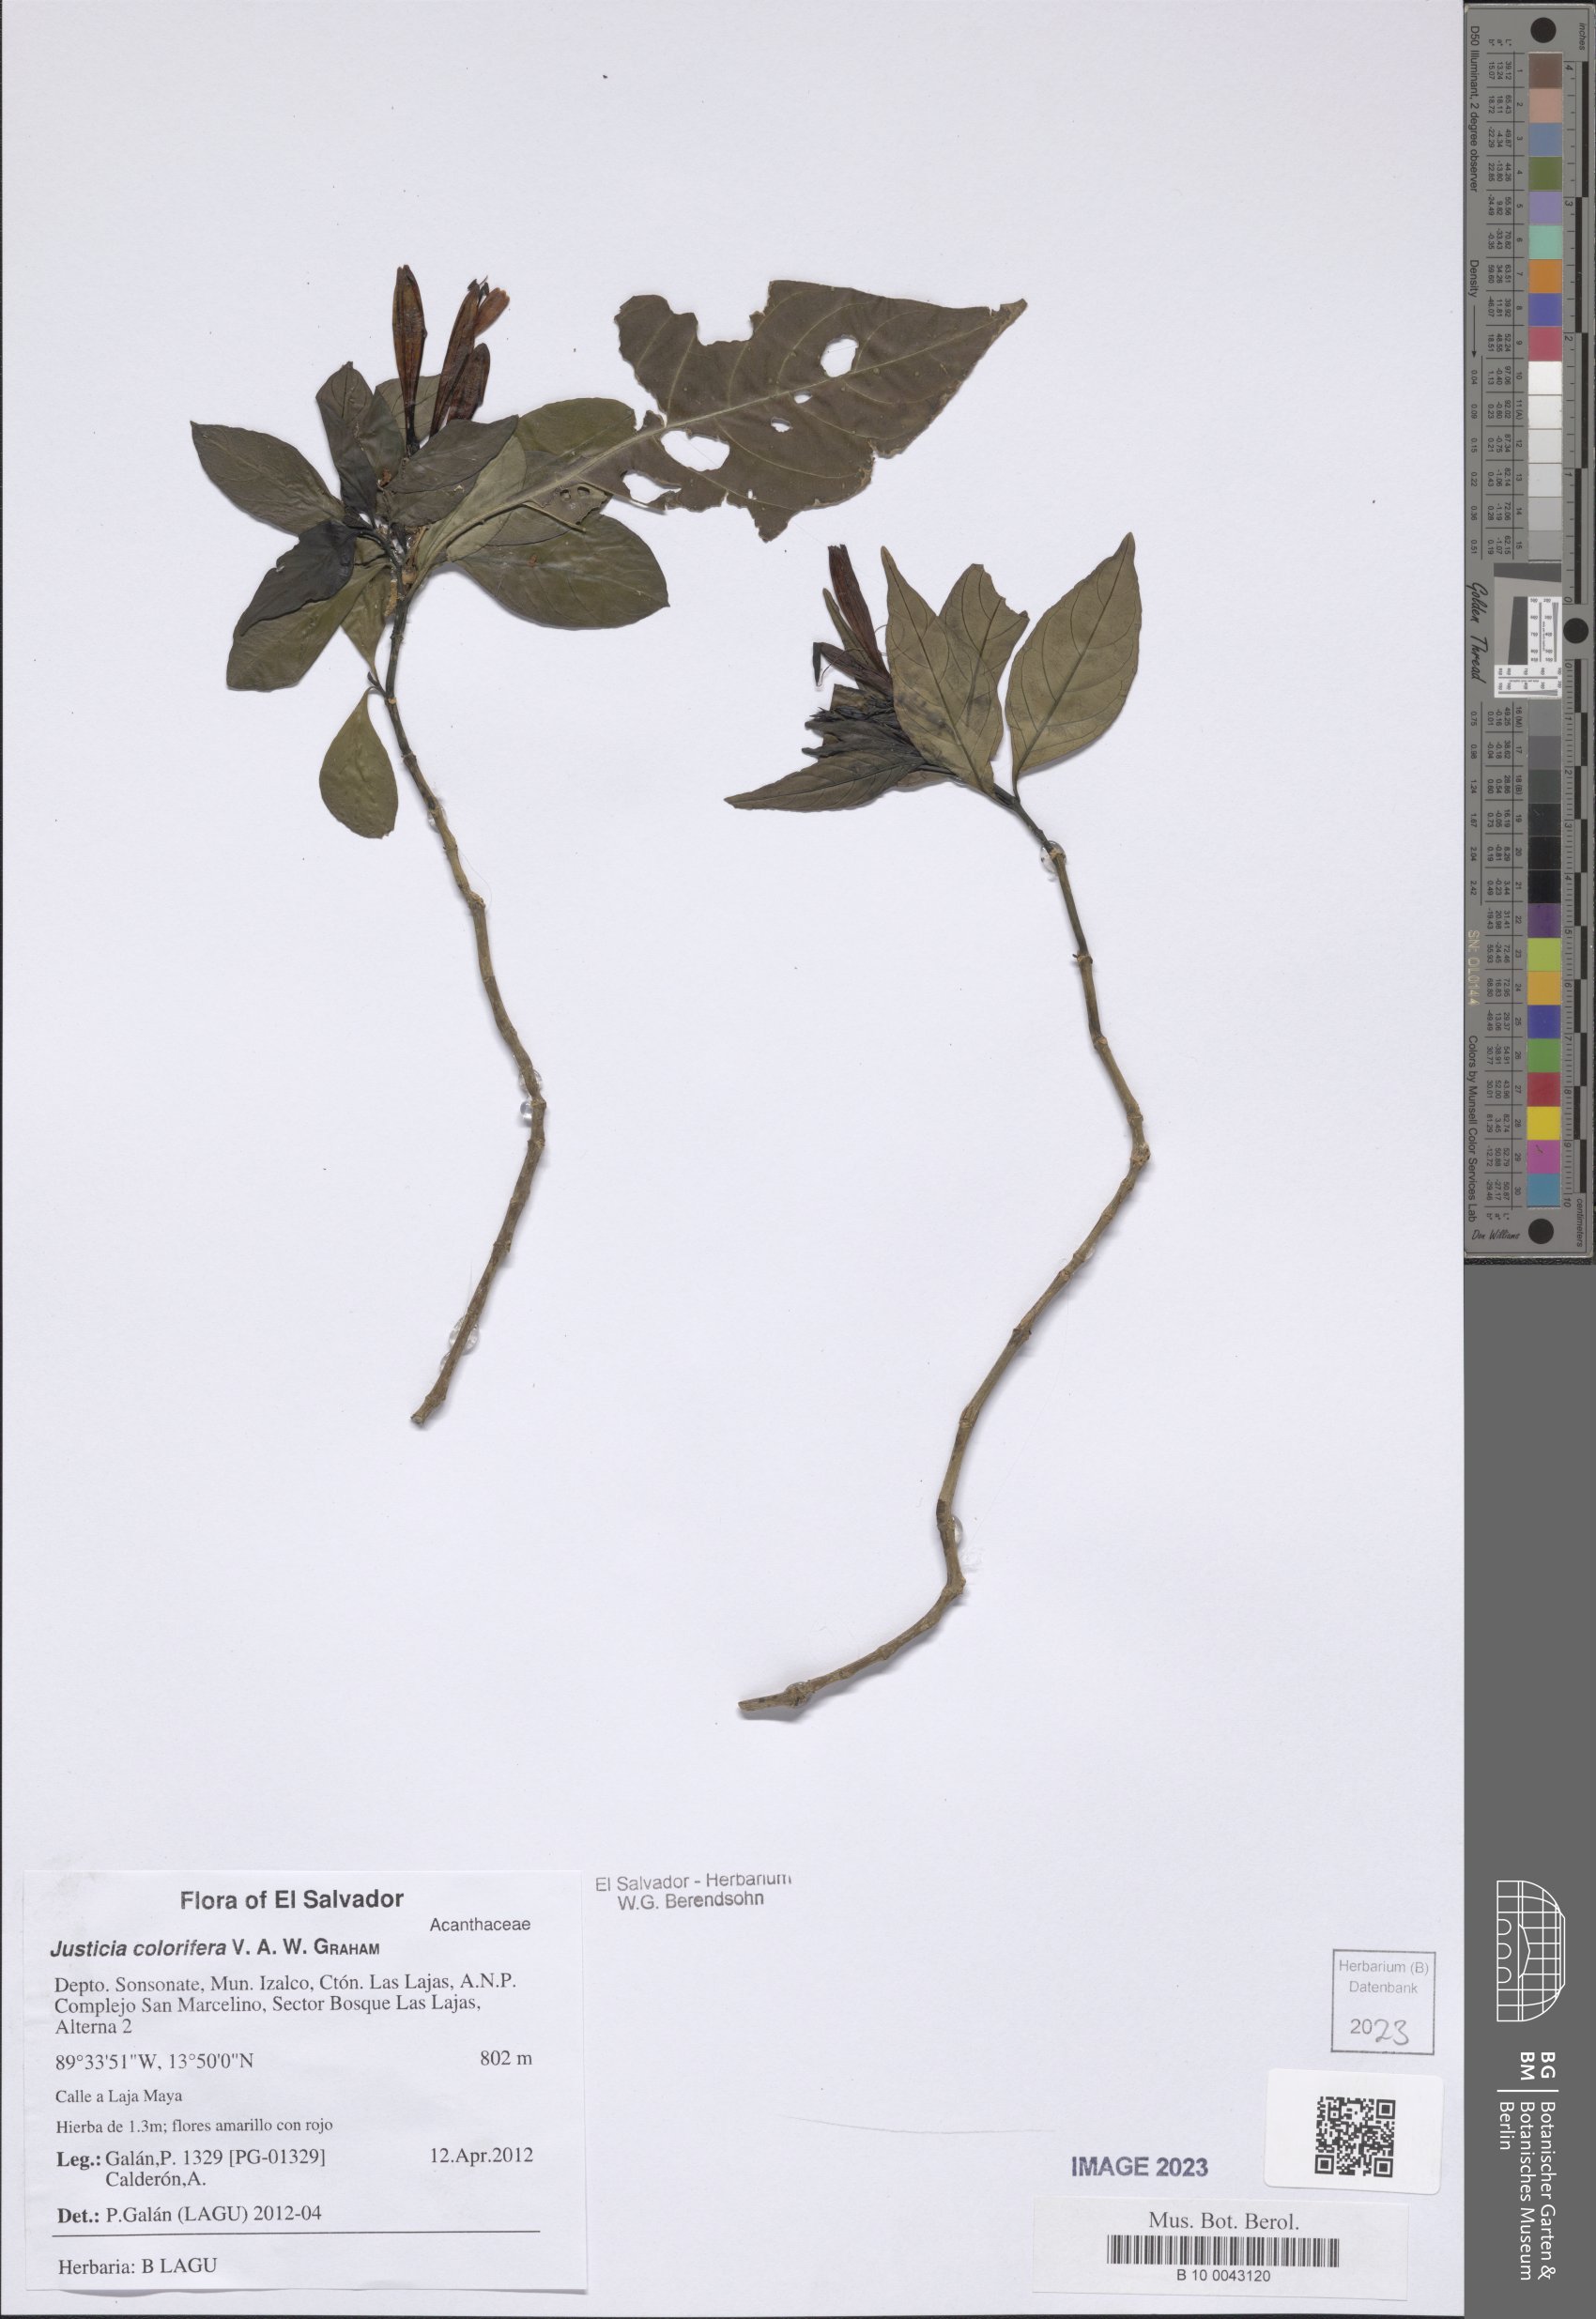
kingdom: Plantae
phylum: Tracheophyta
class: Magnoliopsida
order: Lamiales
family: Acanthaceae
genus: Justicia
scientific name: Justicia tinctoriella
